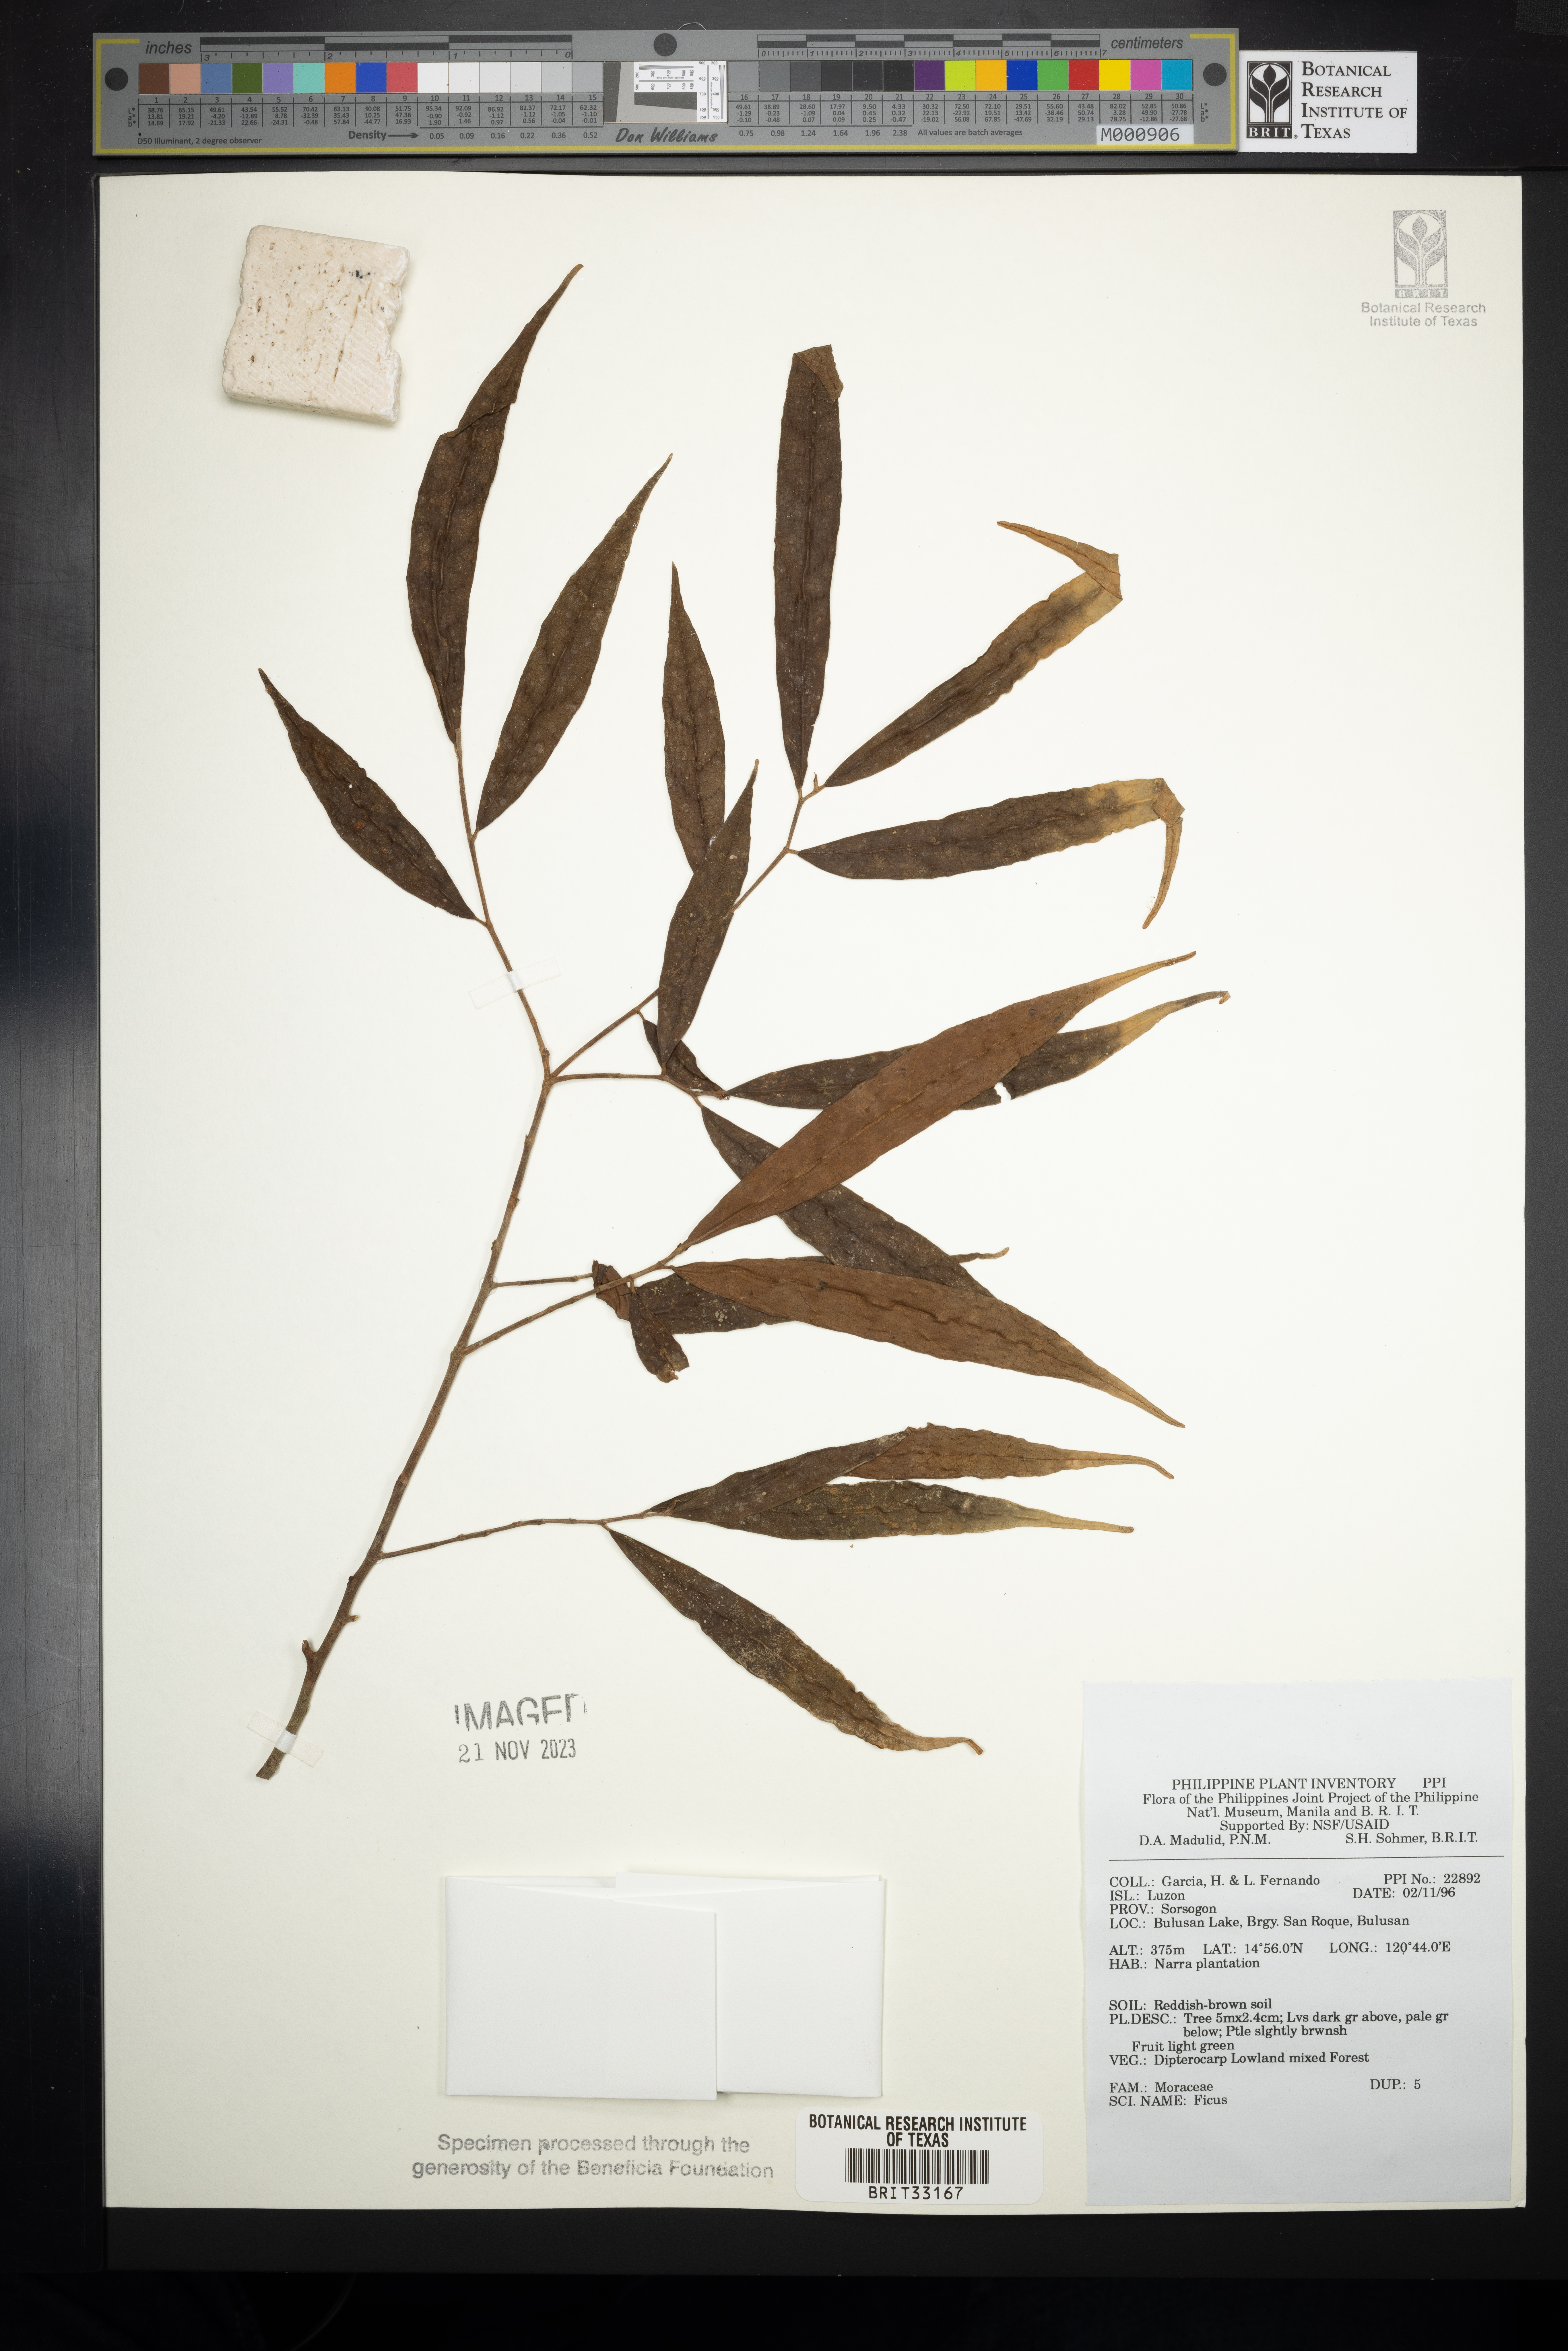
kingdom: Plantae
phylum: Tracheophyta
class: Magnoliopsida
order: Rosales
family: Moraceae
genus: Ficus
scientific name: Ficus
